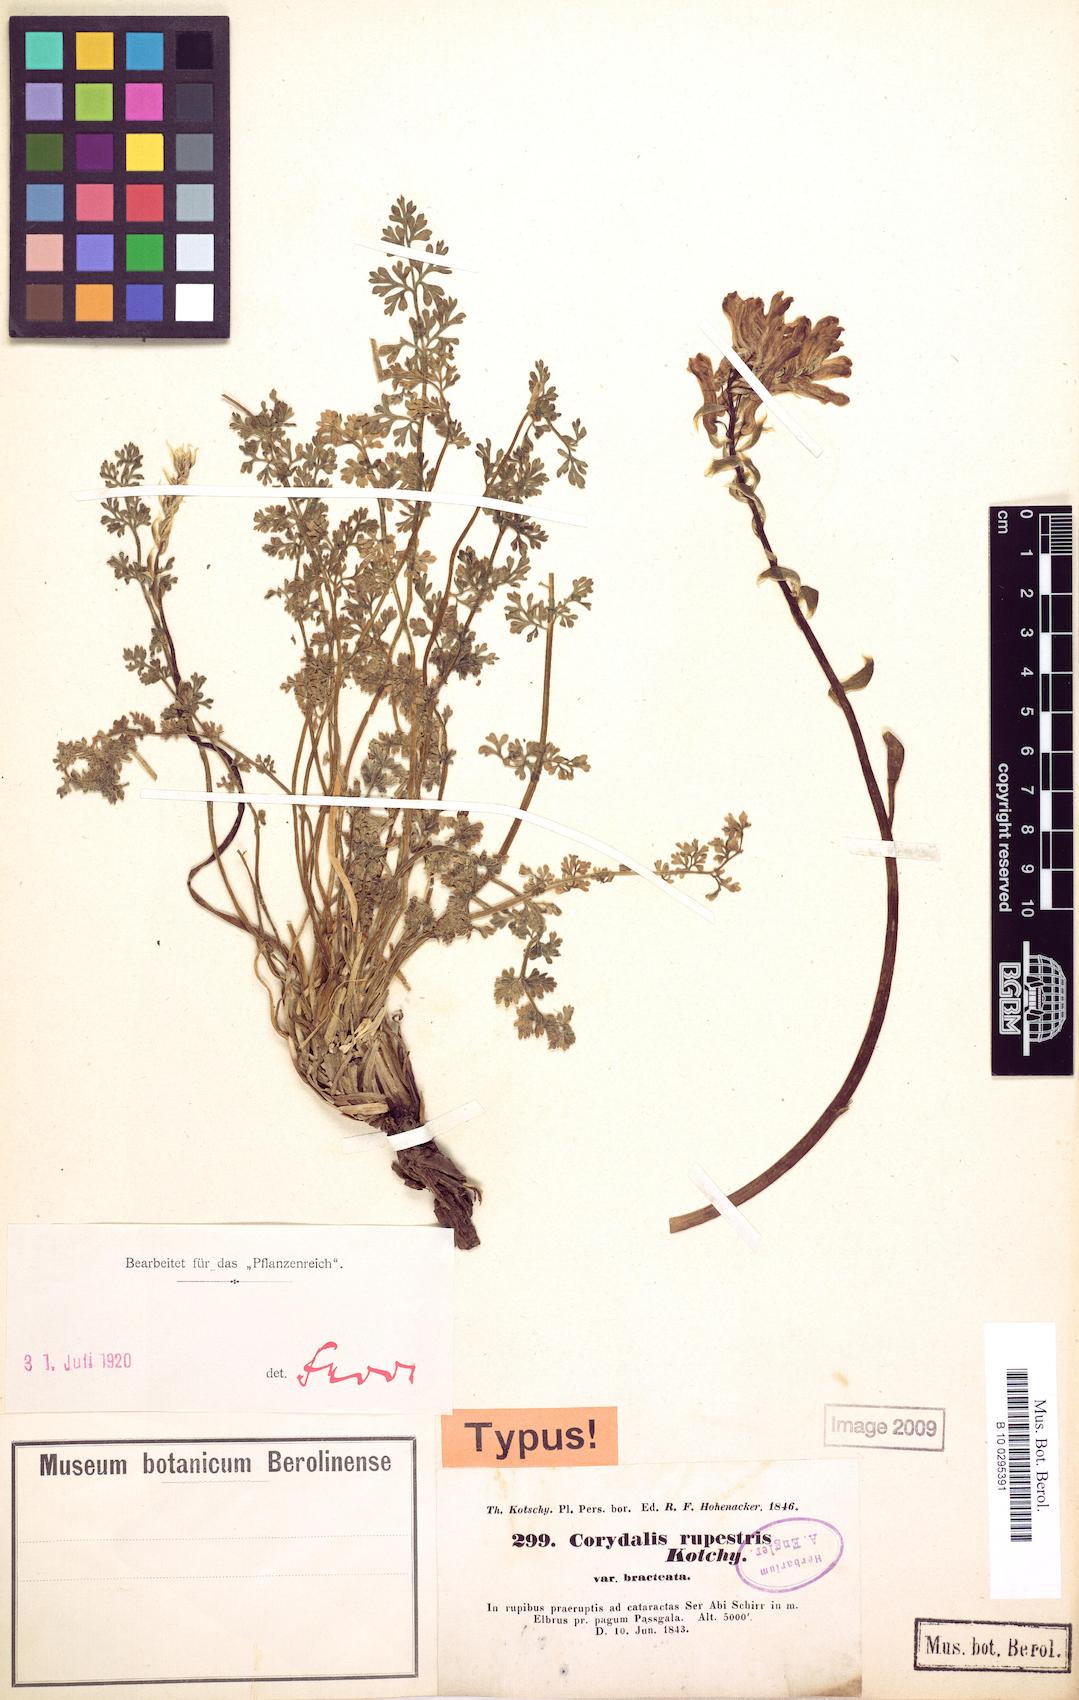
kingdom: Plantae
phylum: Tracheophyta
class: Magnoliopsida
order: Ranunculales
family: Papaveraceae
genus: Corydalis
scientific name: Corydalis rupestris
